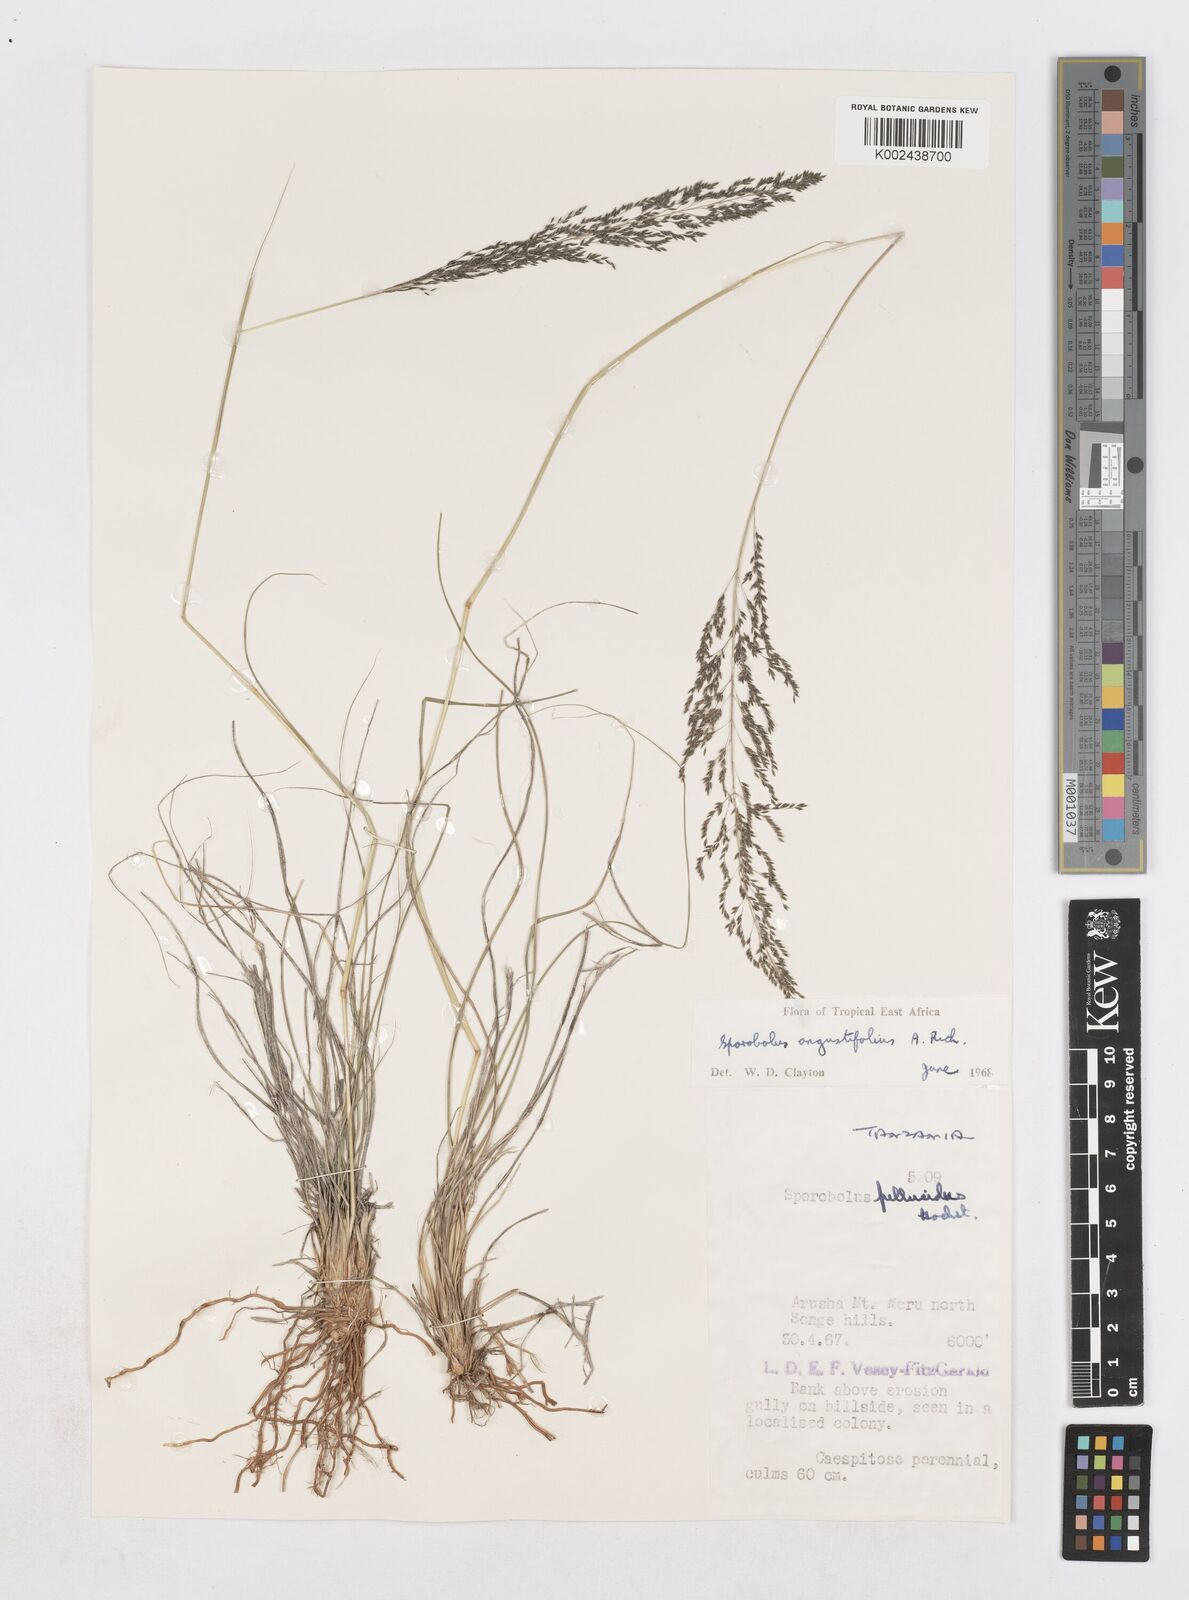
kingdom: Plantae
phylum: Tracheophyta
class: Liliopsida
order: Poales
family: Poaceae
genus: Sporobolus
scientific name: Sporobolus angustifolius
